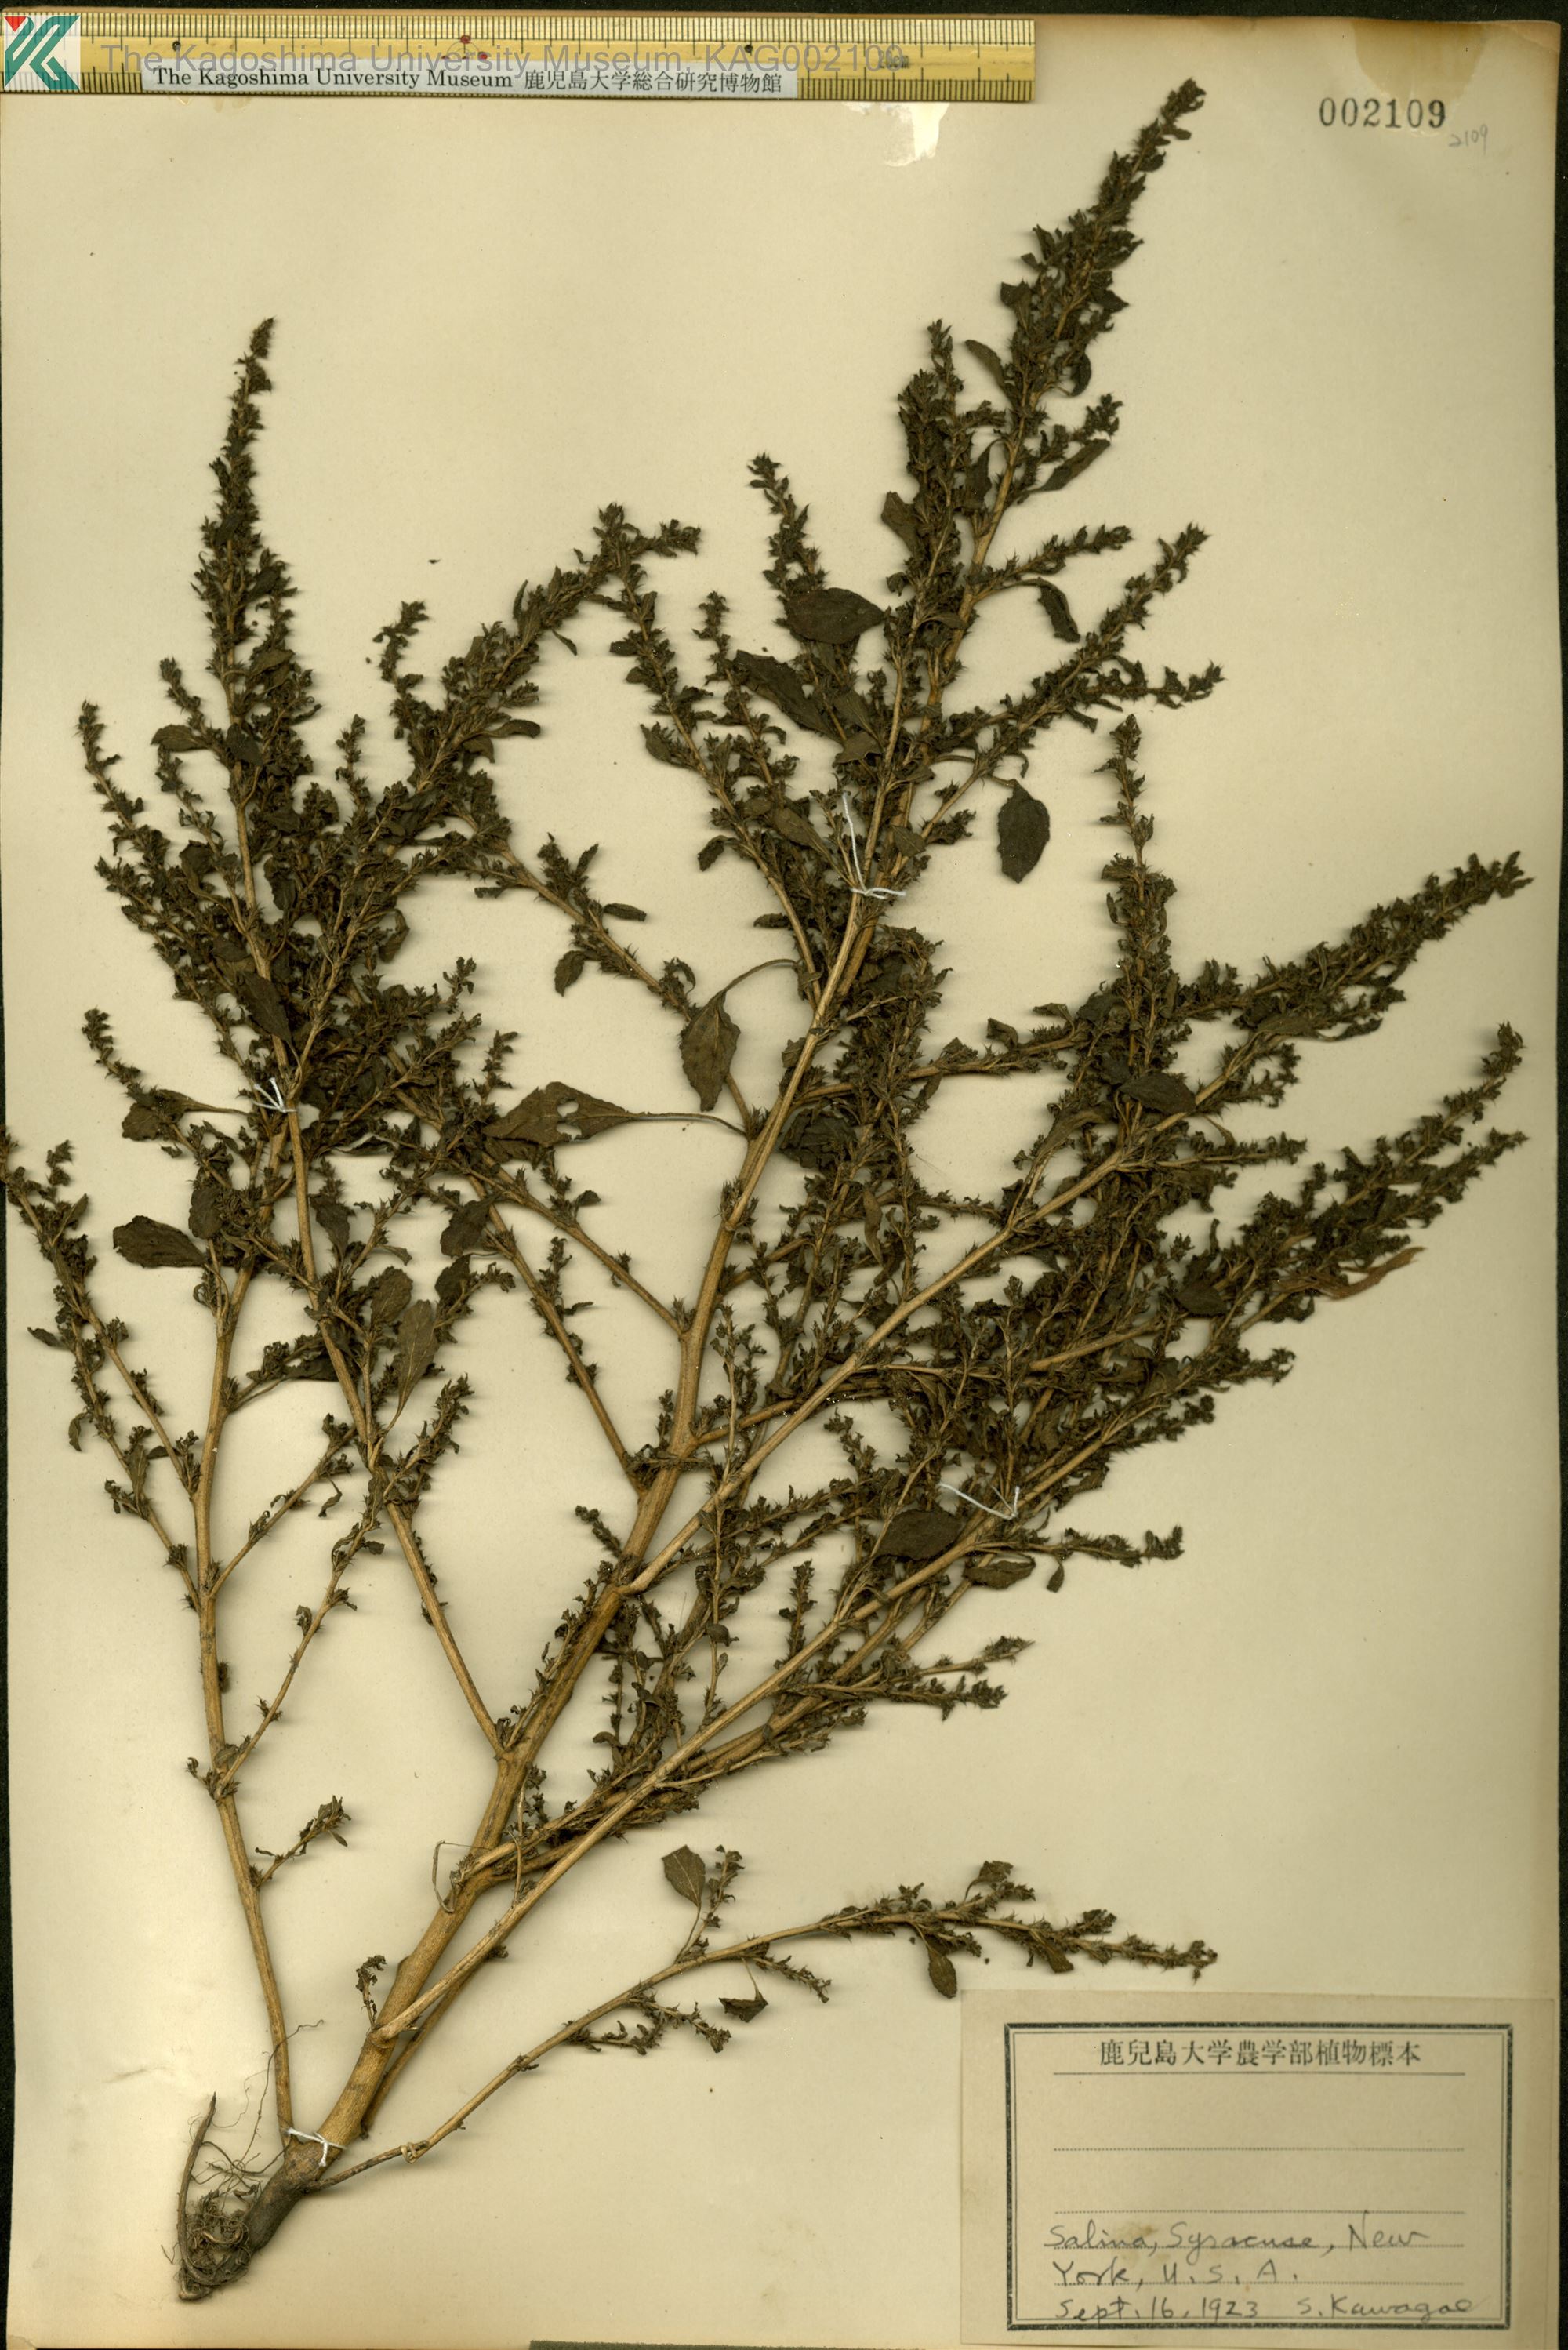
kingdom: Plantae
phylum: Tracheophyta
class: Magnoliopsida
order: Caryophyllales
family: Amaranthaceae
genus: Amaranthus
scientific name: Amaranthus
